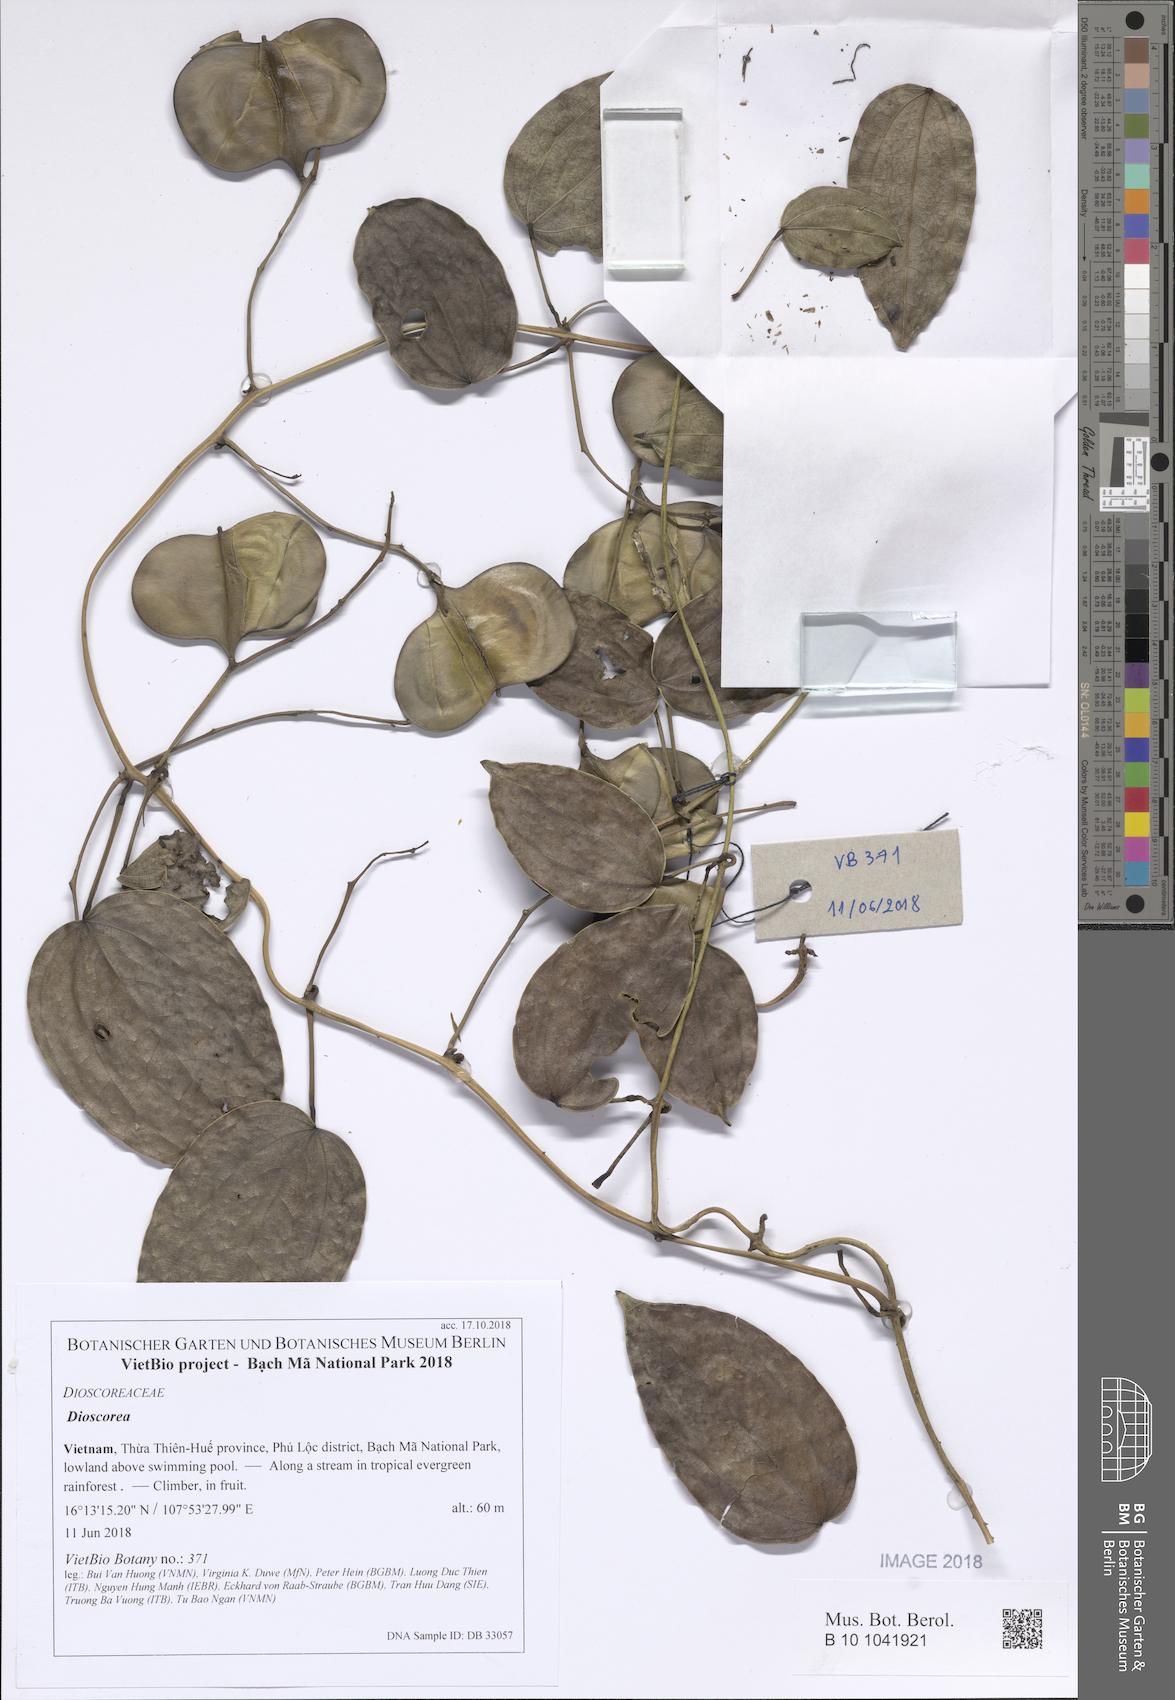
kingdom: Plantae
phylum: Tracheophyta
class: Liliopsida
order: Dioscoreales
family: Dioscoreaceae
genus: Dioscorea
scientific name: Dioscorea
